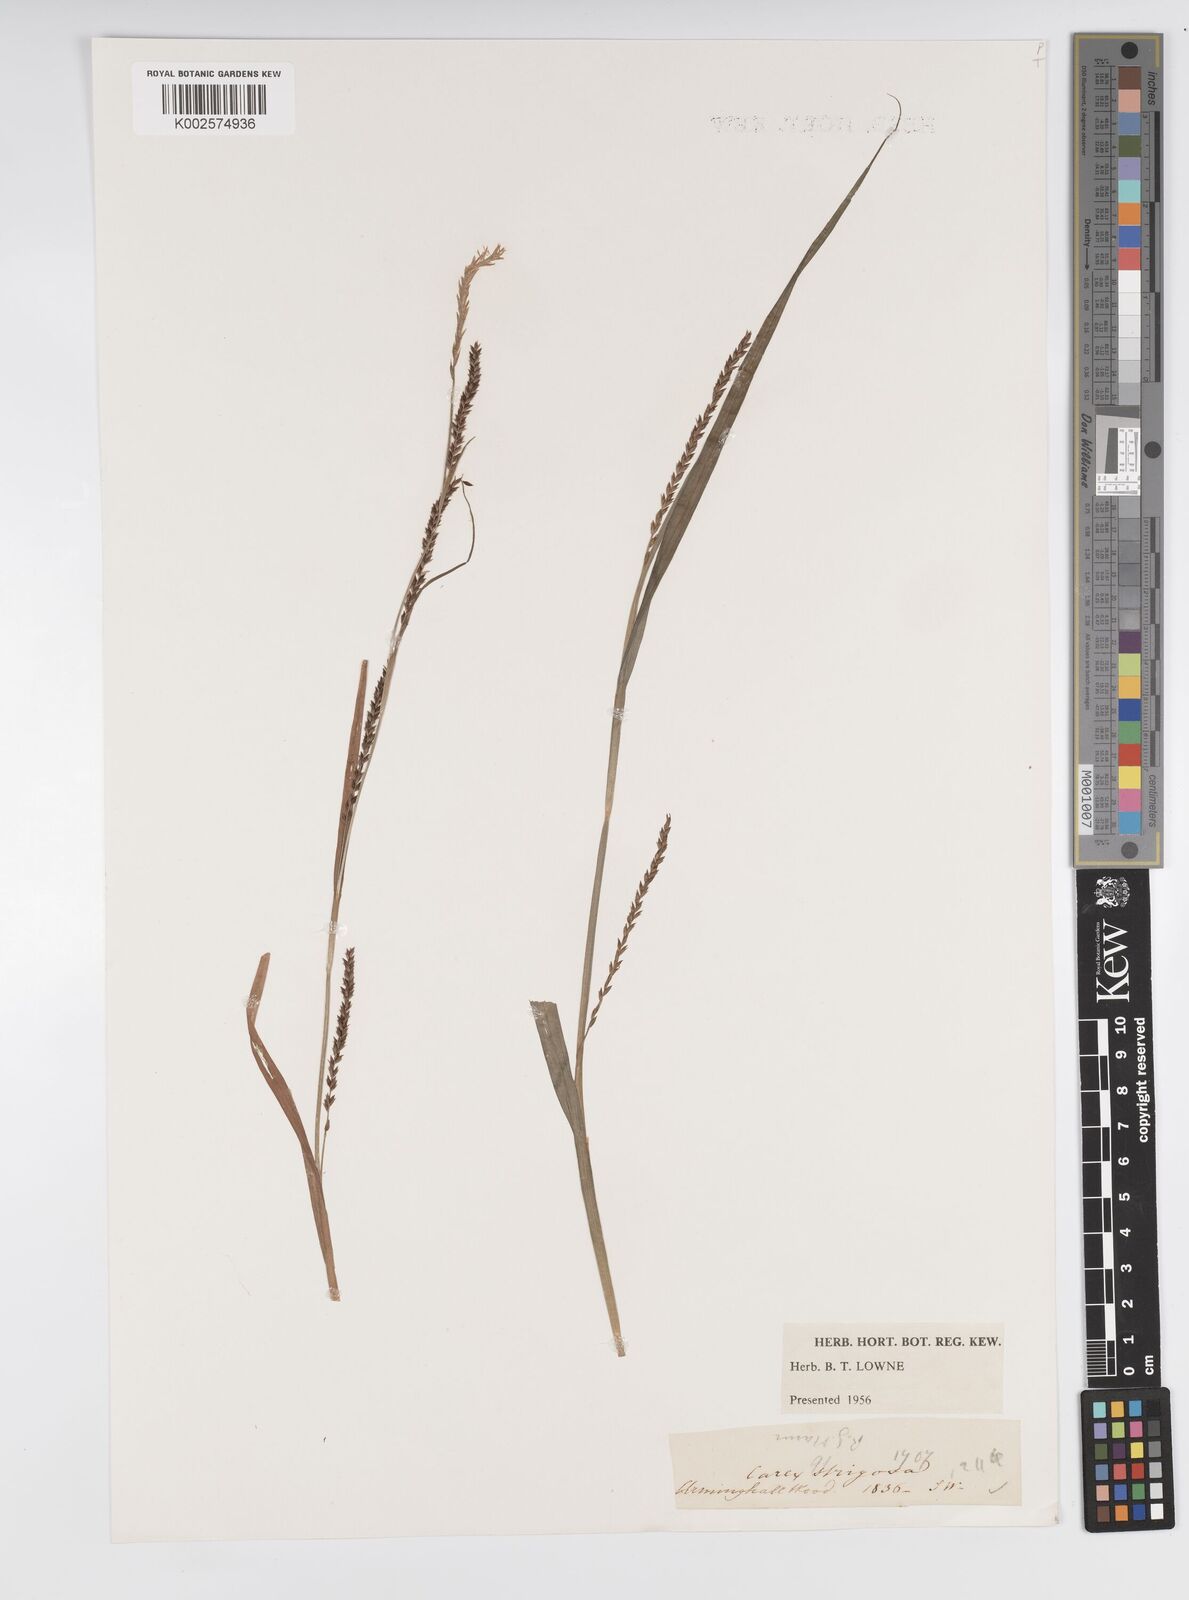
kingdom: Plantae
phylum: Tracheophyta
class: Liliopsida
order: Poales
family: Cyperaceae
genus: Carex
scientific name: Carex strigosa
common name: Thin-spiked wood-sedge
